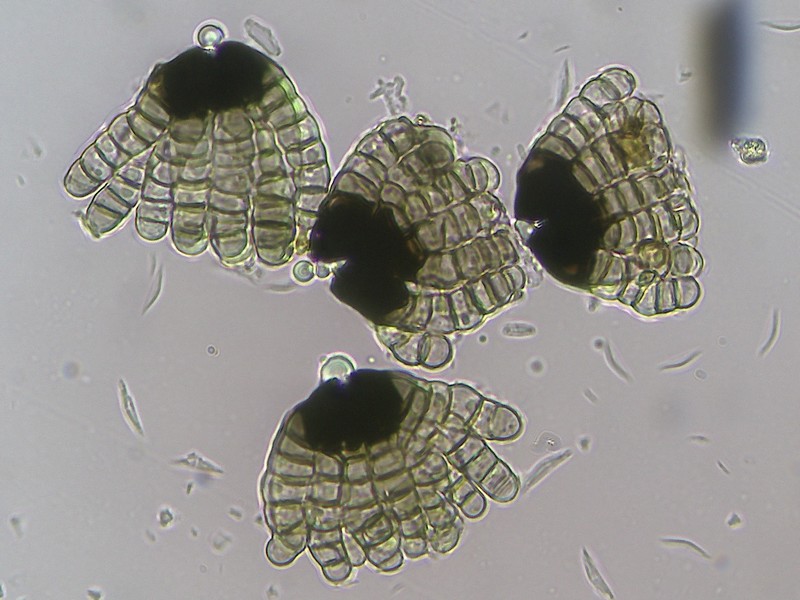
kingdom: Fungi
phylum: Ascomycota
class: Dothideomycetes
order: Pleosporales
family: Cryptocoryneaceae
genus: Cryptocoryneum
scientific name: Cryptocoryneum rilstonei
